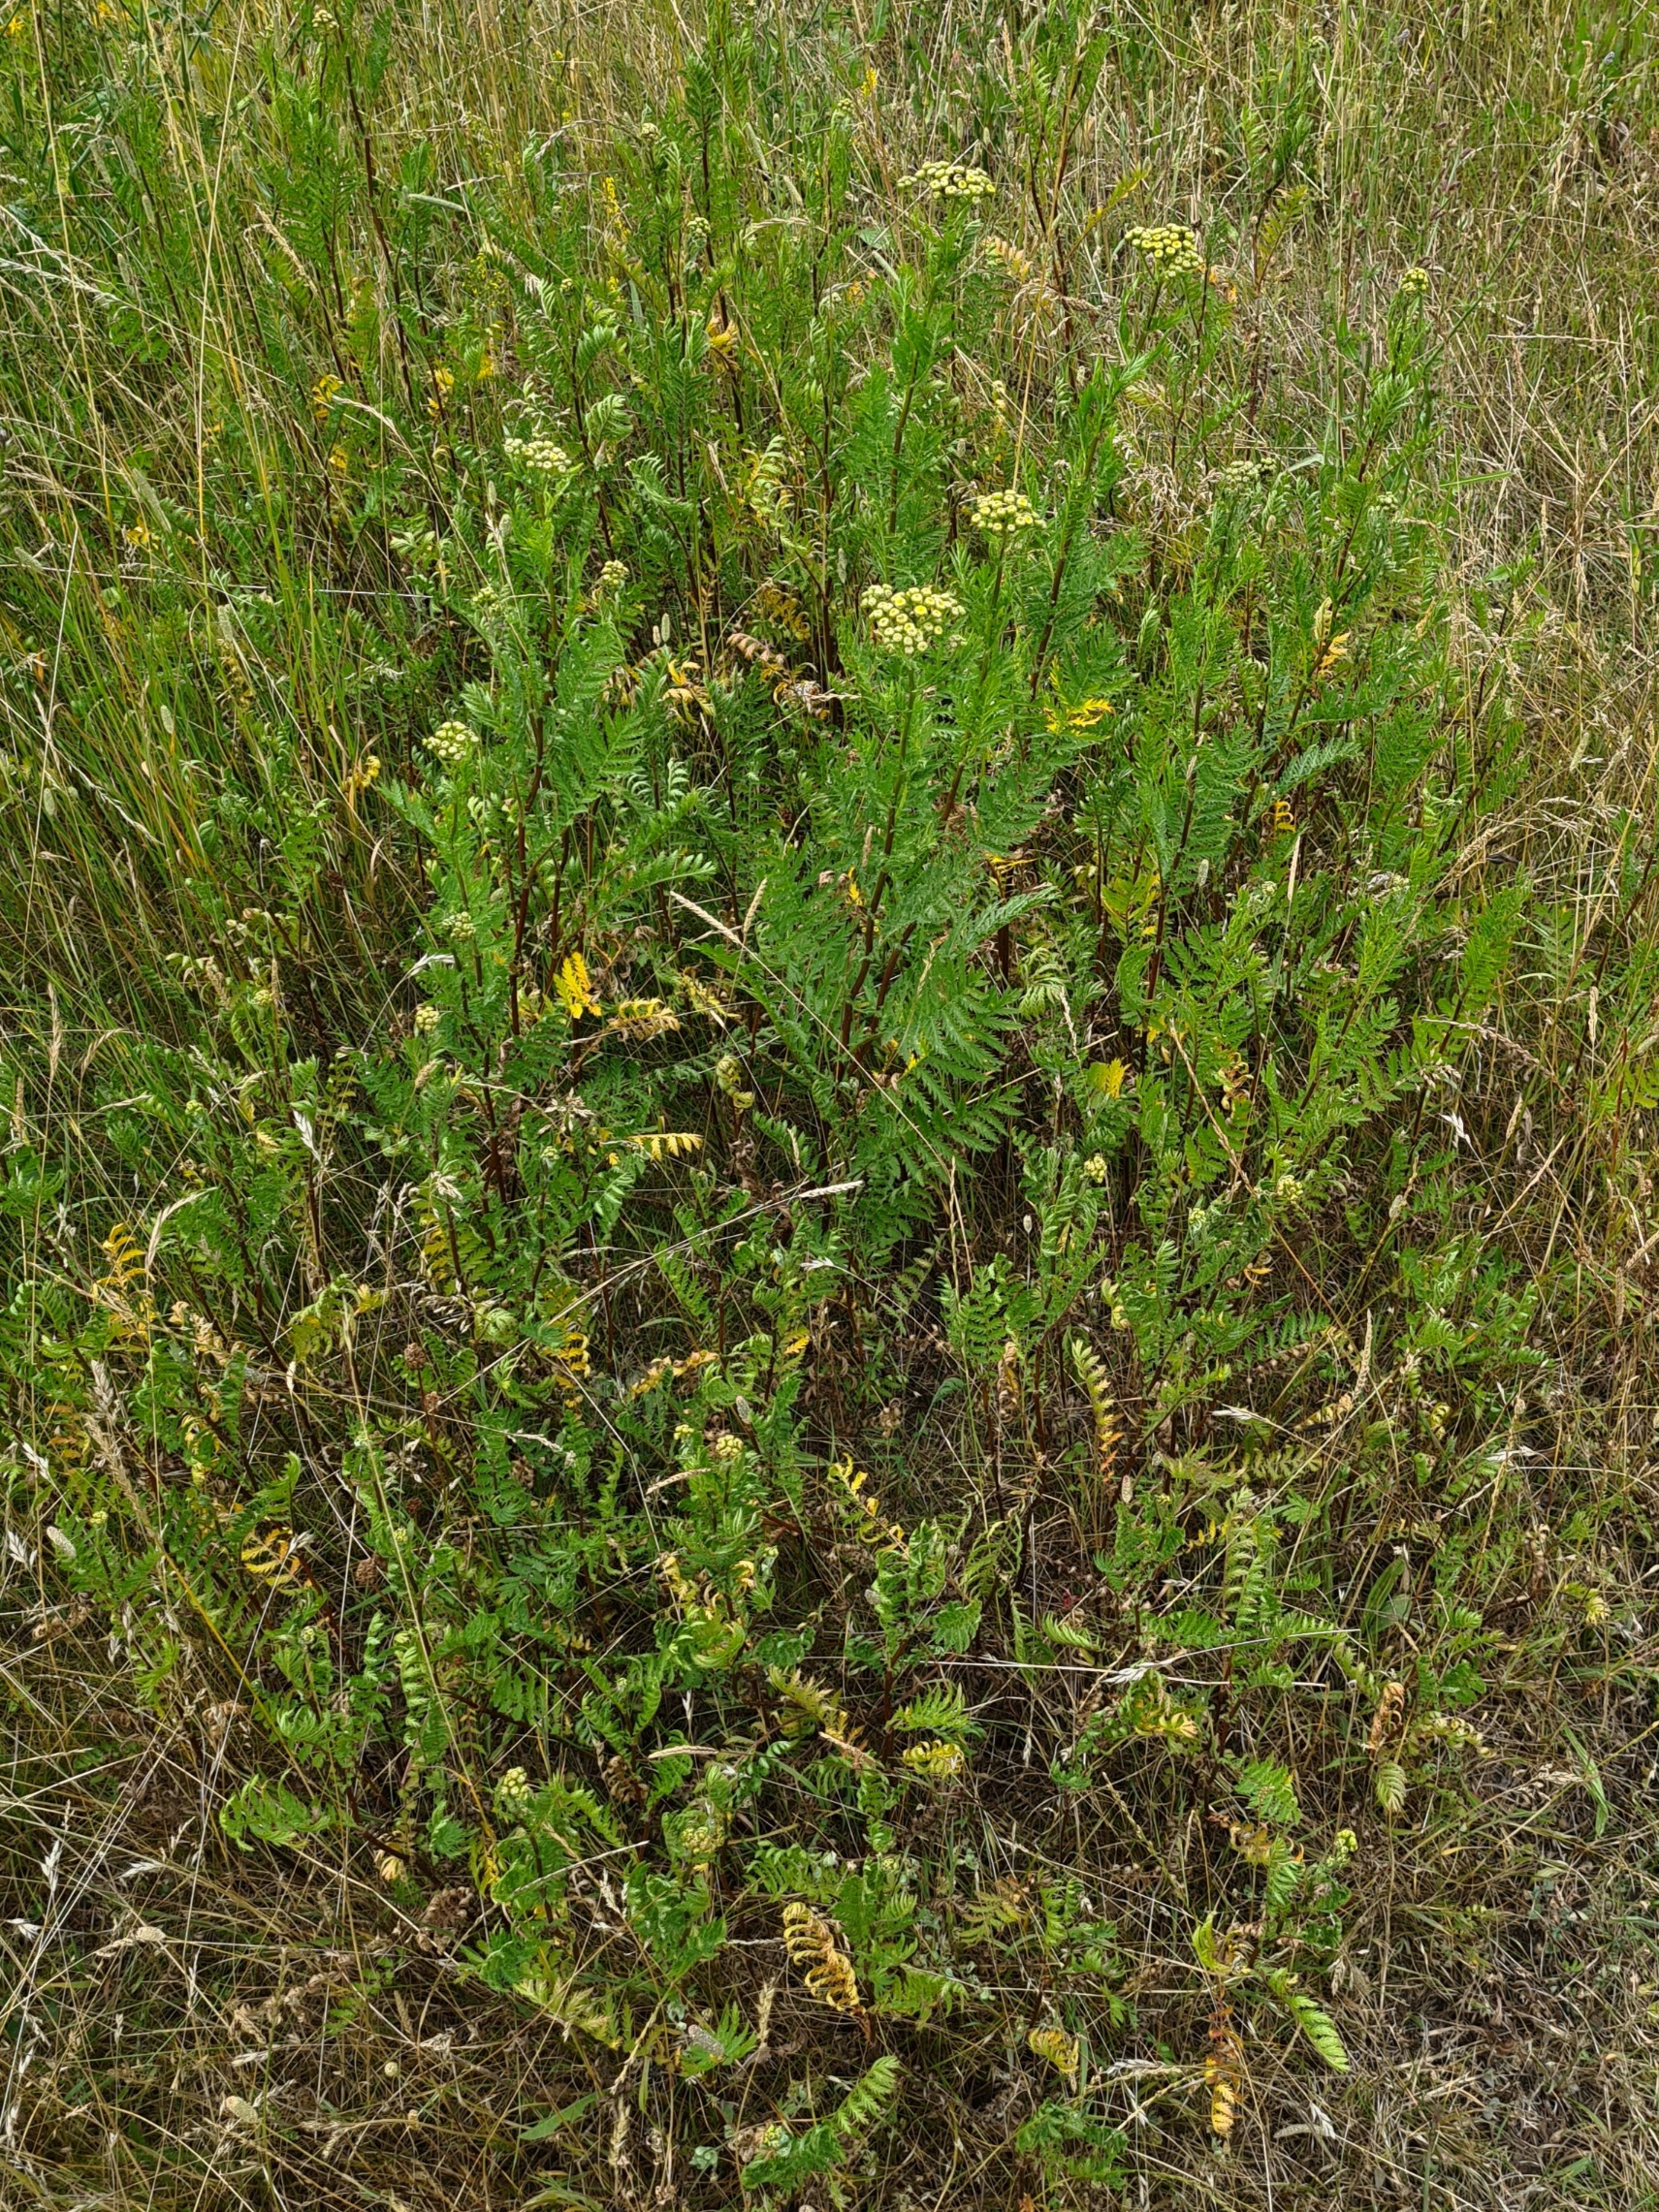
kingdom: Plantae
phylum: Tracheophyta
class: Magnoliopsida
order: Asterales
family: Asteraceae
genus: Tanacetum
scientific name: Tanacetum vulgare
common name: Rejnfan
